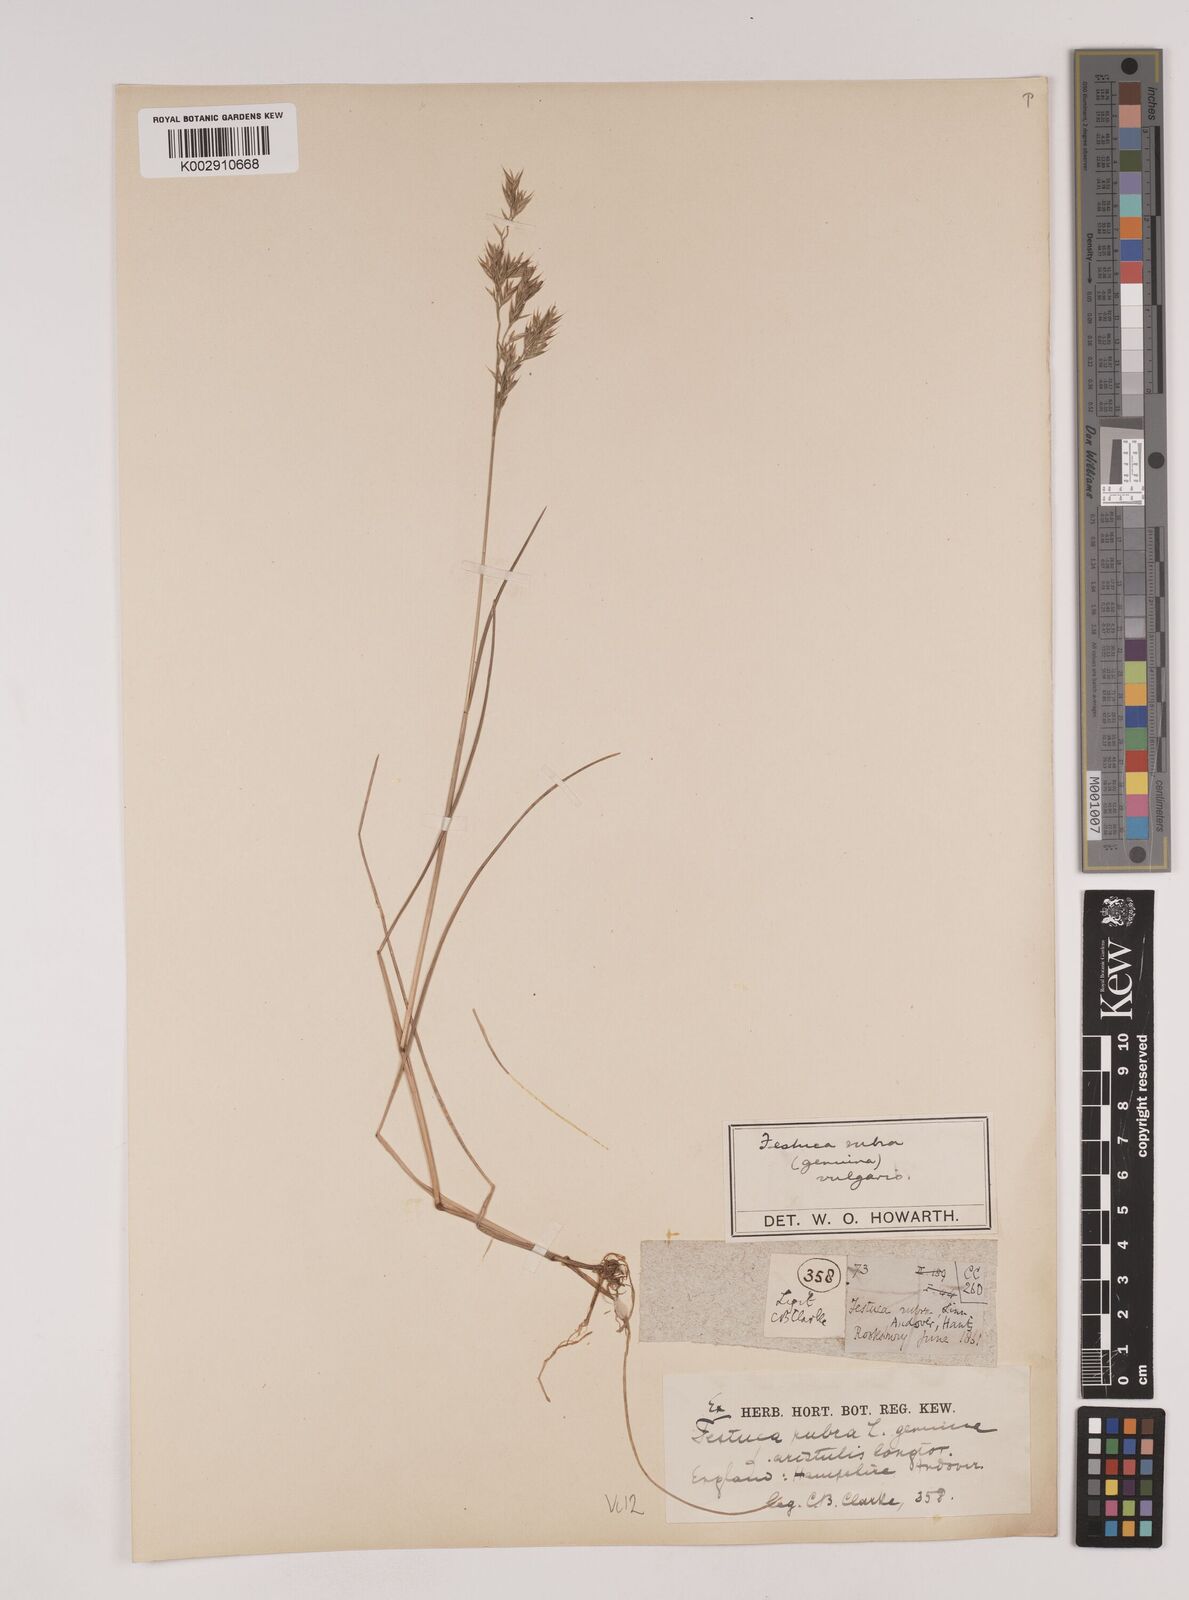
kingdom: Plantae
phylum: Tracheophyta
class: Liliopsida
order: Poales
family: Poaceae
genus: Festuca
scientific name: Festuca rubra
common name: Red fescue
